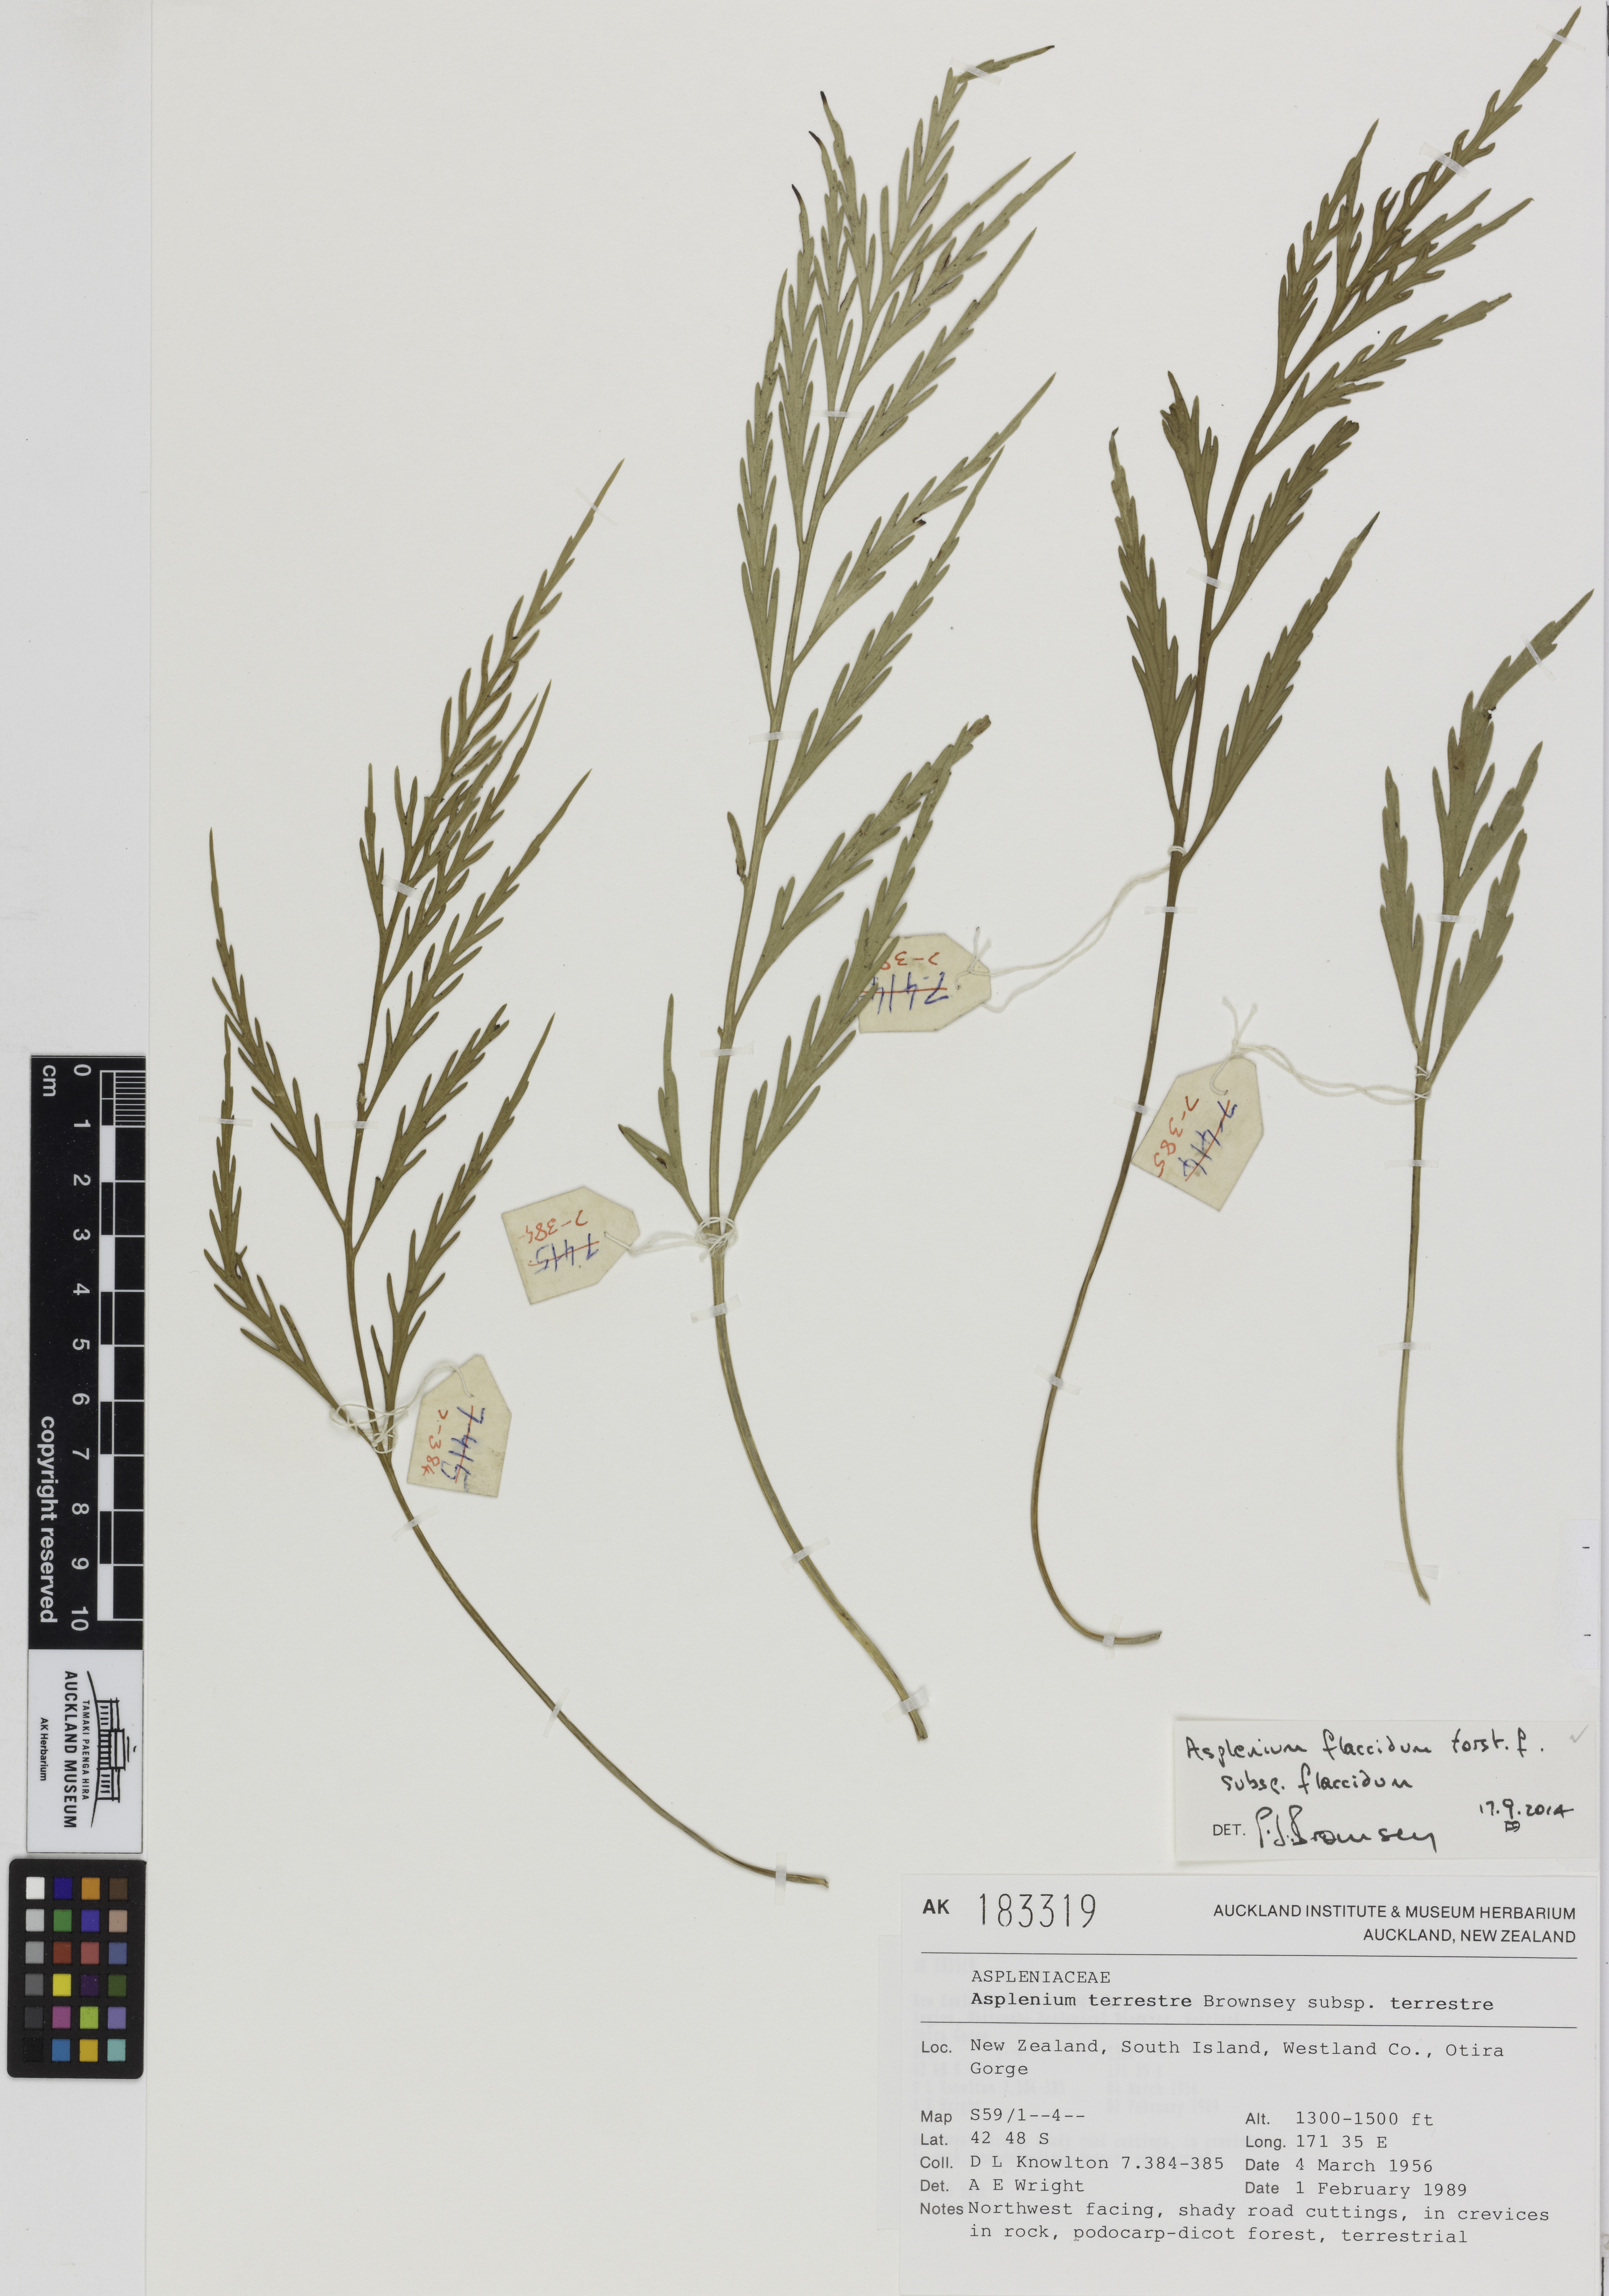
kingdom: Plantae
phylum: Tracheophyta
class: Polypodiopsida
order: Polypodiales
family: Aspleniaceae
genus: Asplenium
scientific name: Asplenium flaccidum
